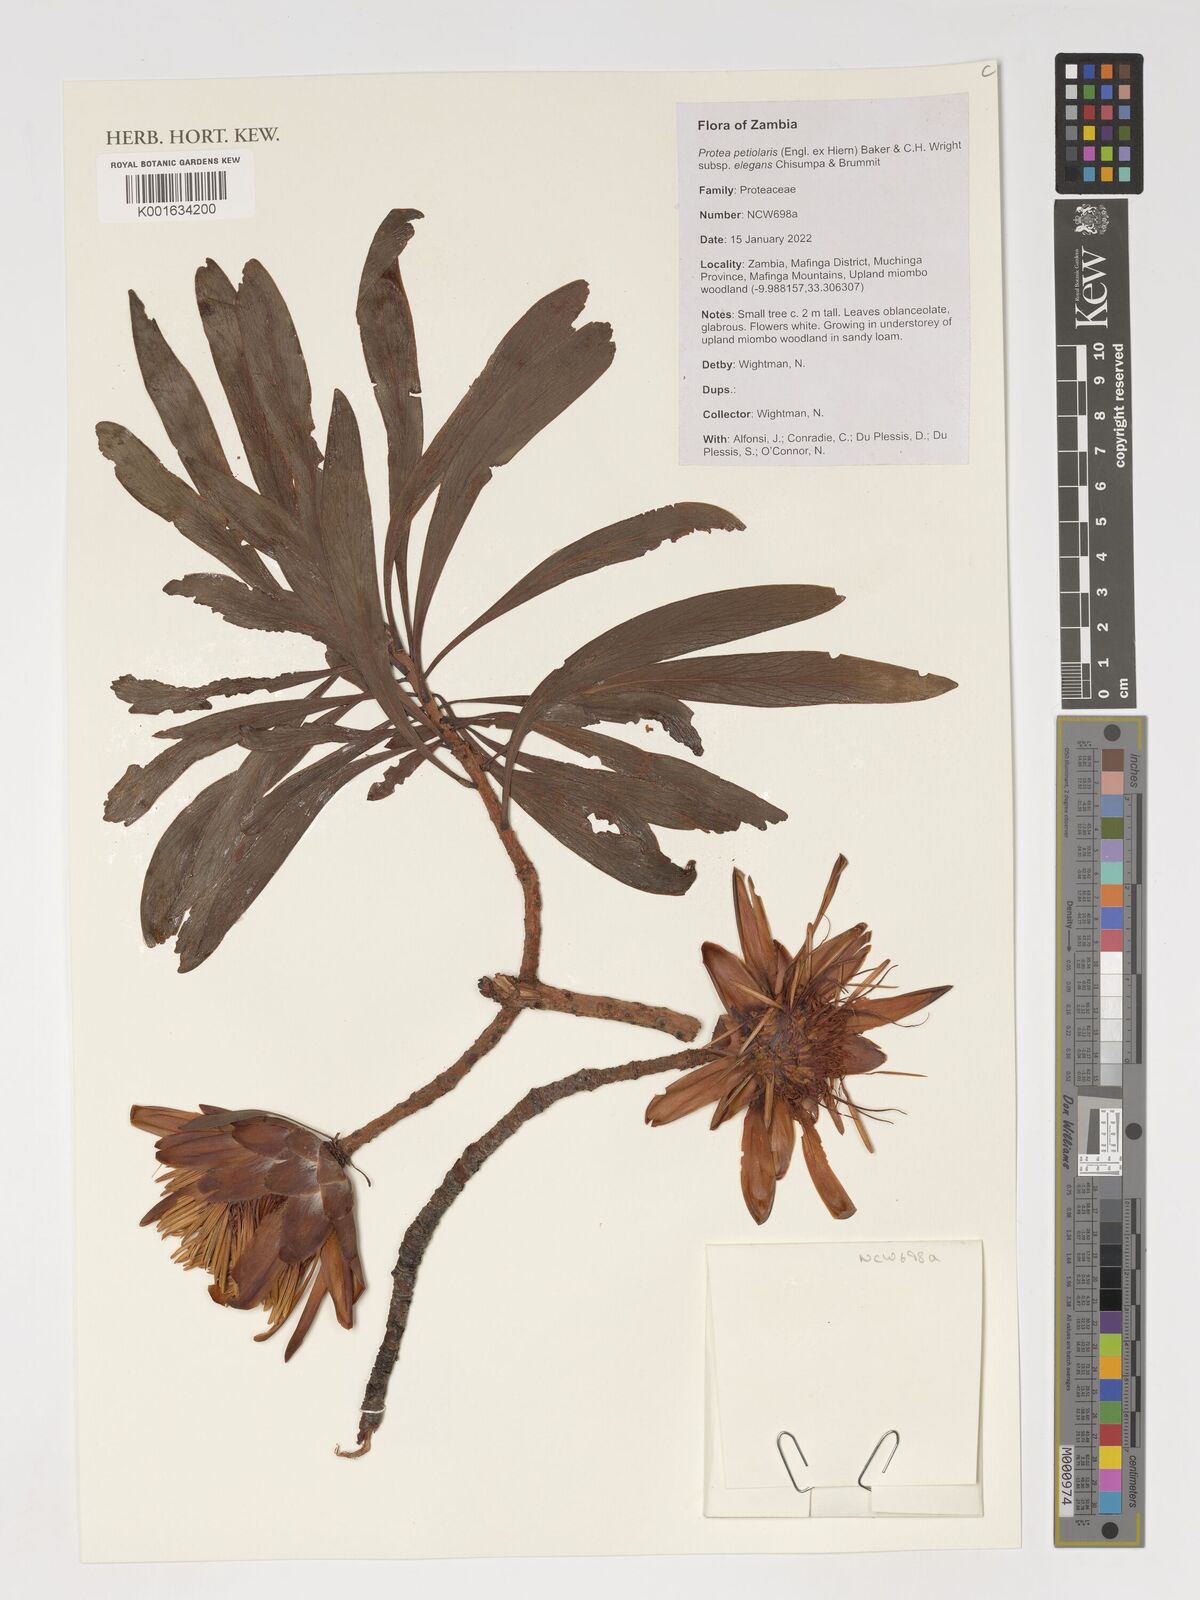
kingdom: Plantae
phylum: Tracheophyta
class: Magnoliopsida
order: Proteales
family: Proteaceae
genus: Protea
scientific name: Protea petiolaris
